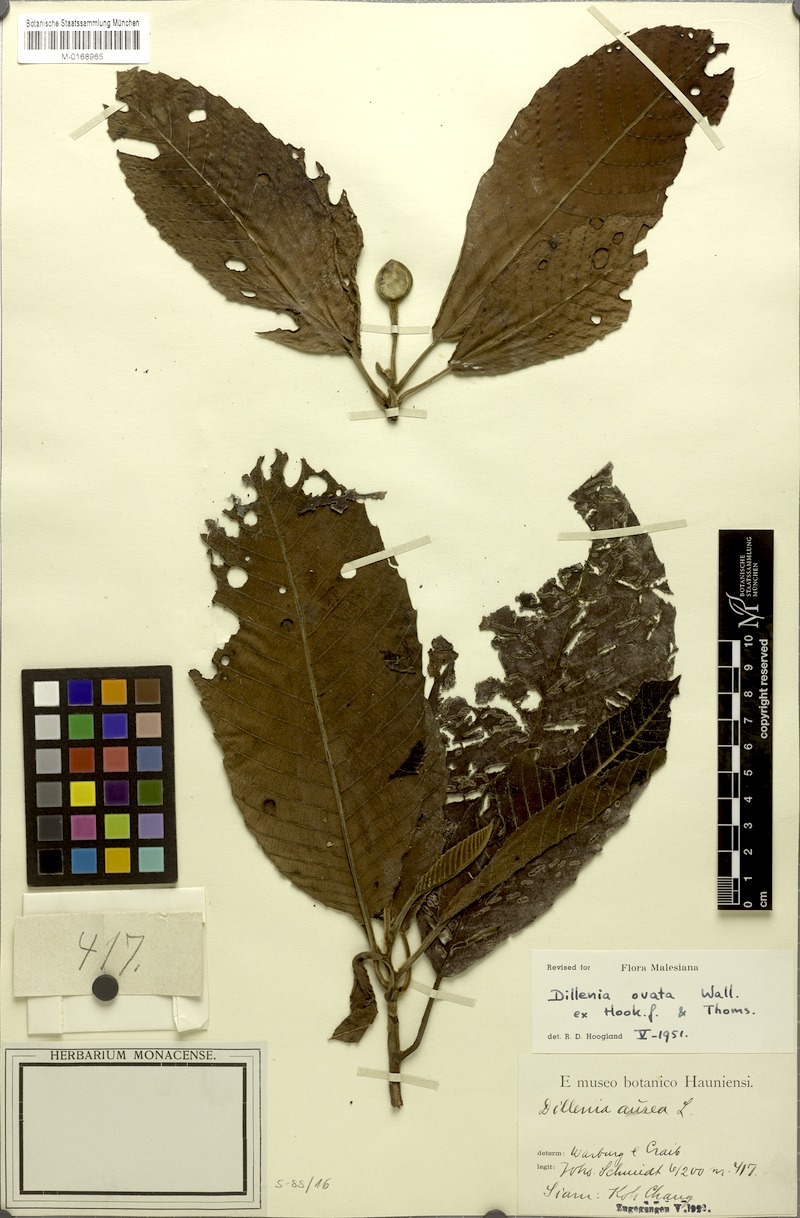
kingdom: Plantae
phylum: Tracheophyta
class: Magnoliopsida
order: Dilleniales
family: Dilleniaceae
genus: Dillenia
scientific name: Dillenia ovata
